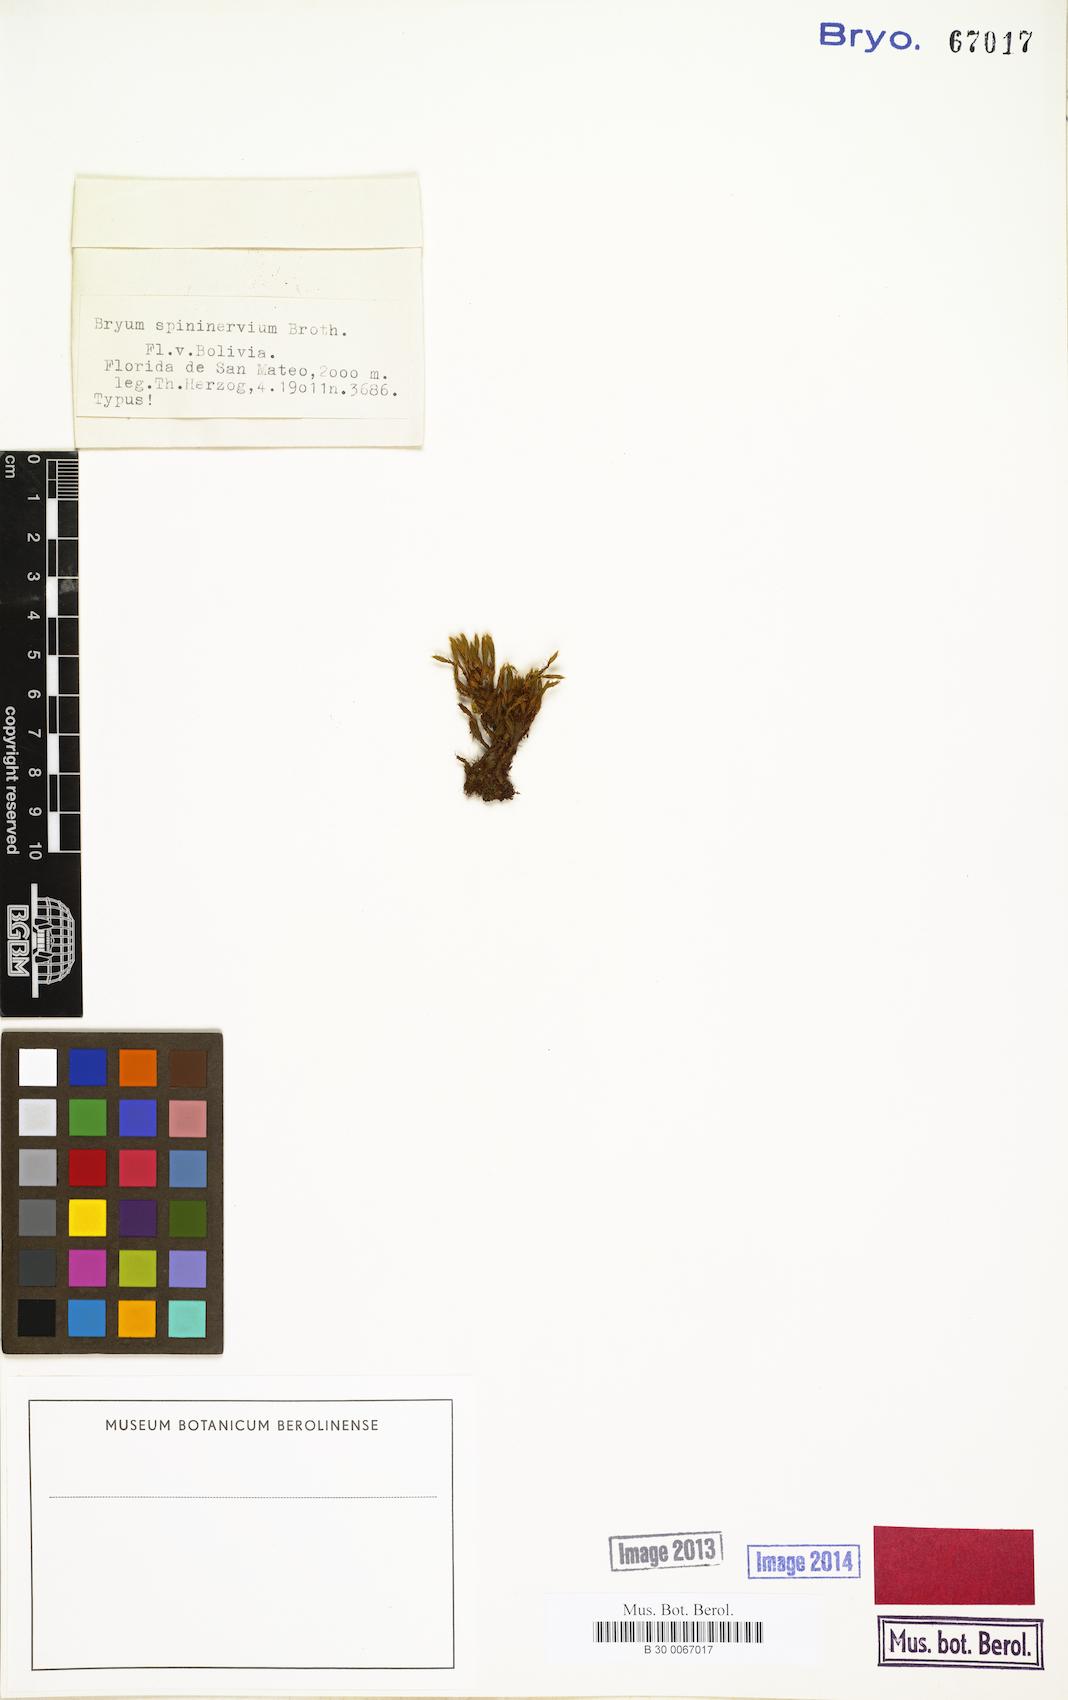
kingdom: Plantae
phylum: Bryophyta
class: Bryopsida
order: Bryales
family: Bryaceae
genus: Rosulabryum
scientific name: Rosulabryum
